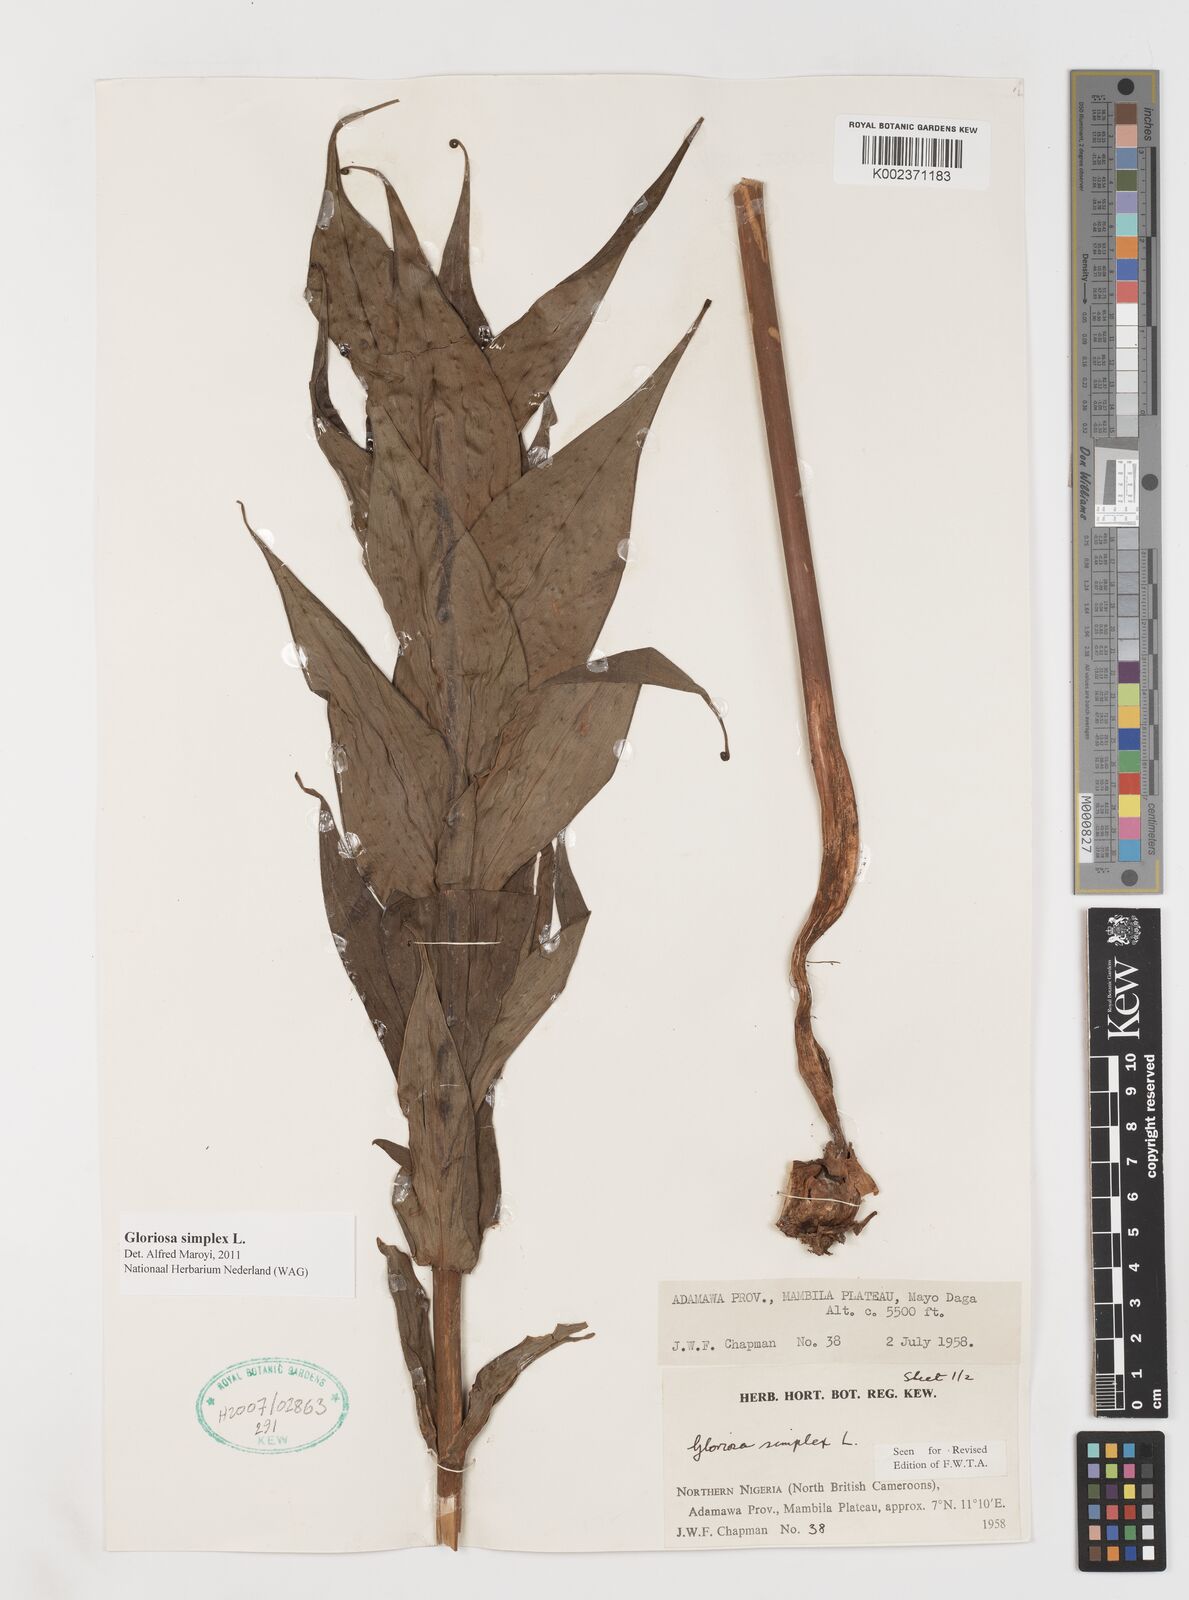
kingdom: Plantae
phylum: Tracheophyta
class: Liliopsida
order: Liliales
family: Colchicaceae
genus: Gloriosa
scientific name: Gloriosa simplex
